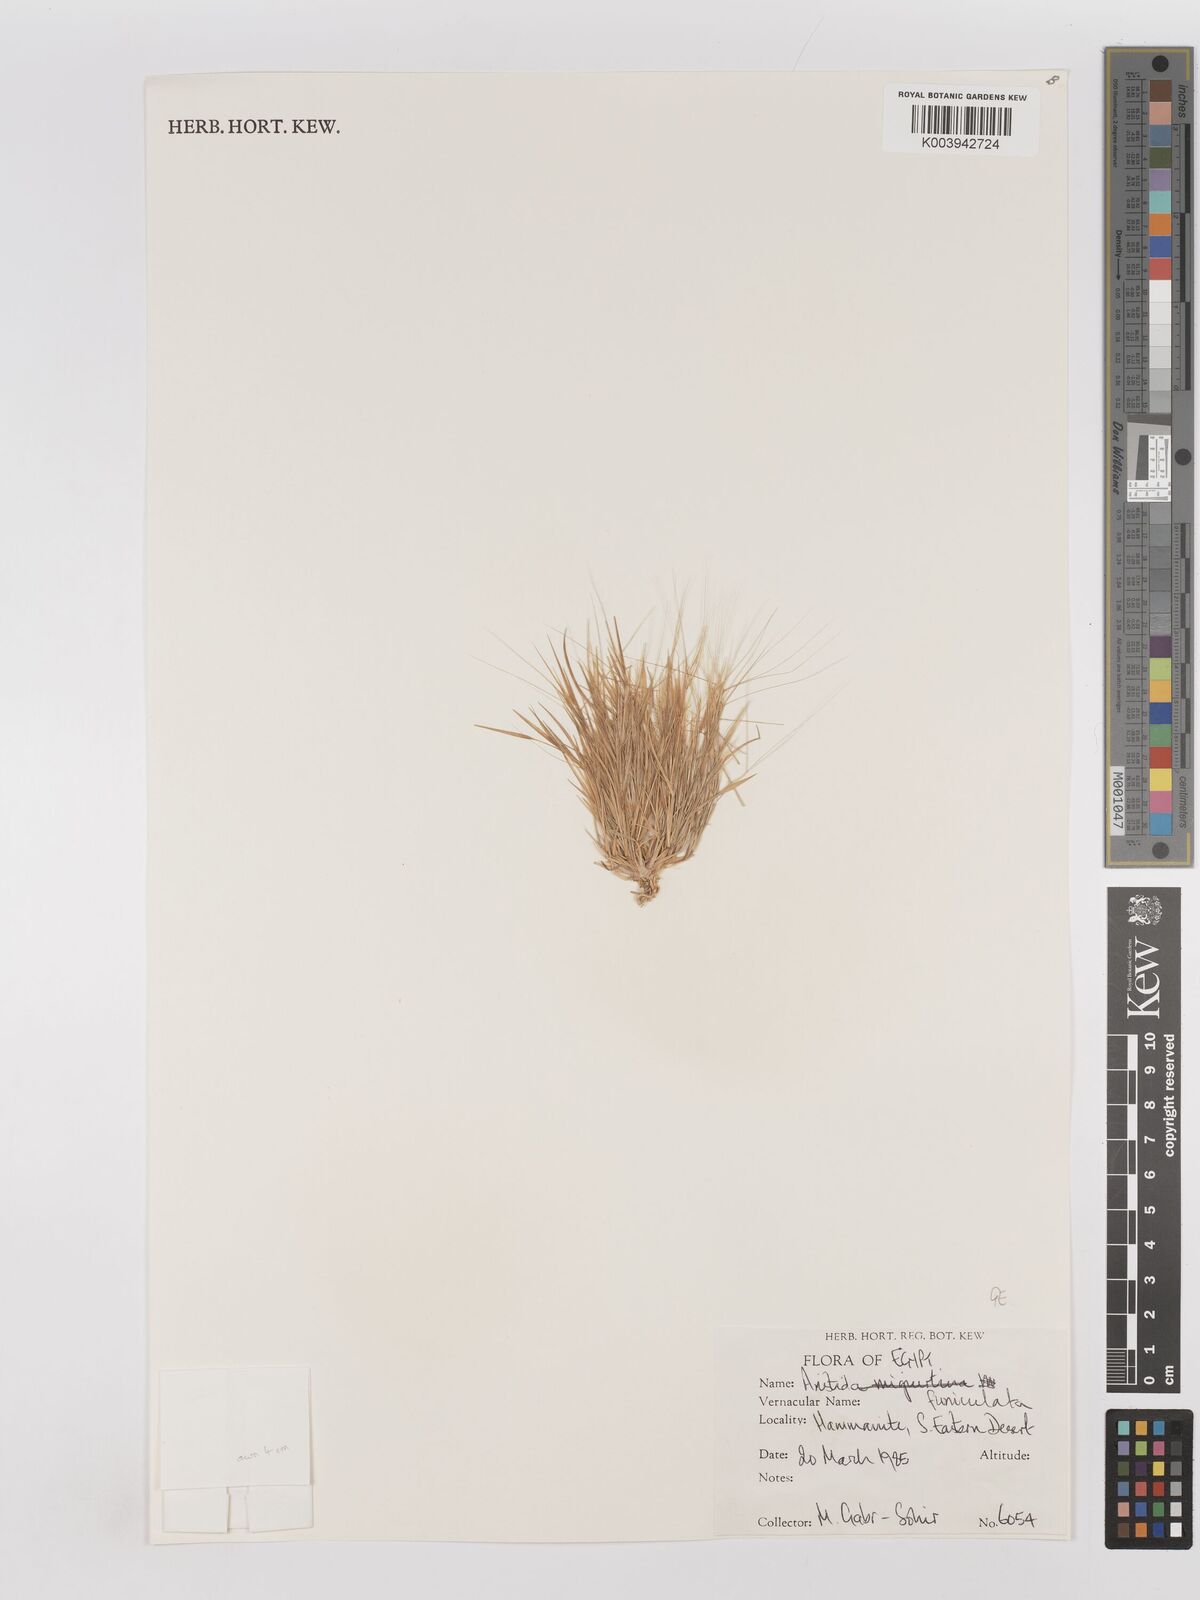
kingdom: Plantae
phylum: Tracheophyta
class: Liliopsida
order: Poales
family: Poaceae
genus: Aristida
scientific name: Aristida funiculata
